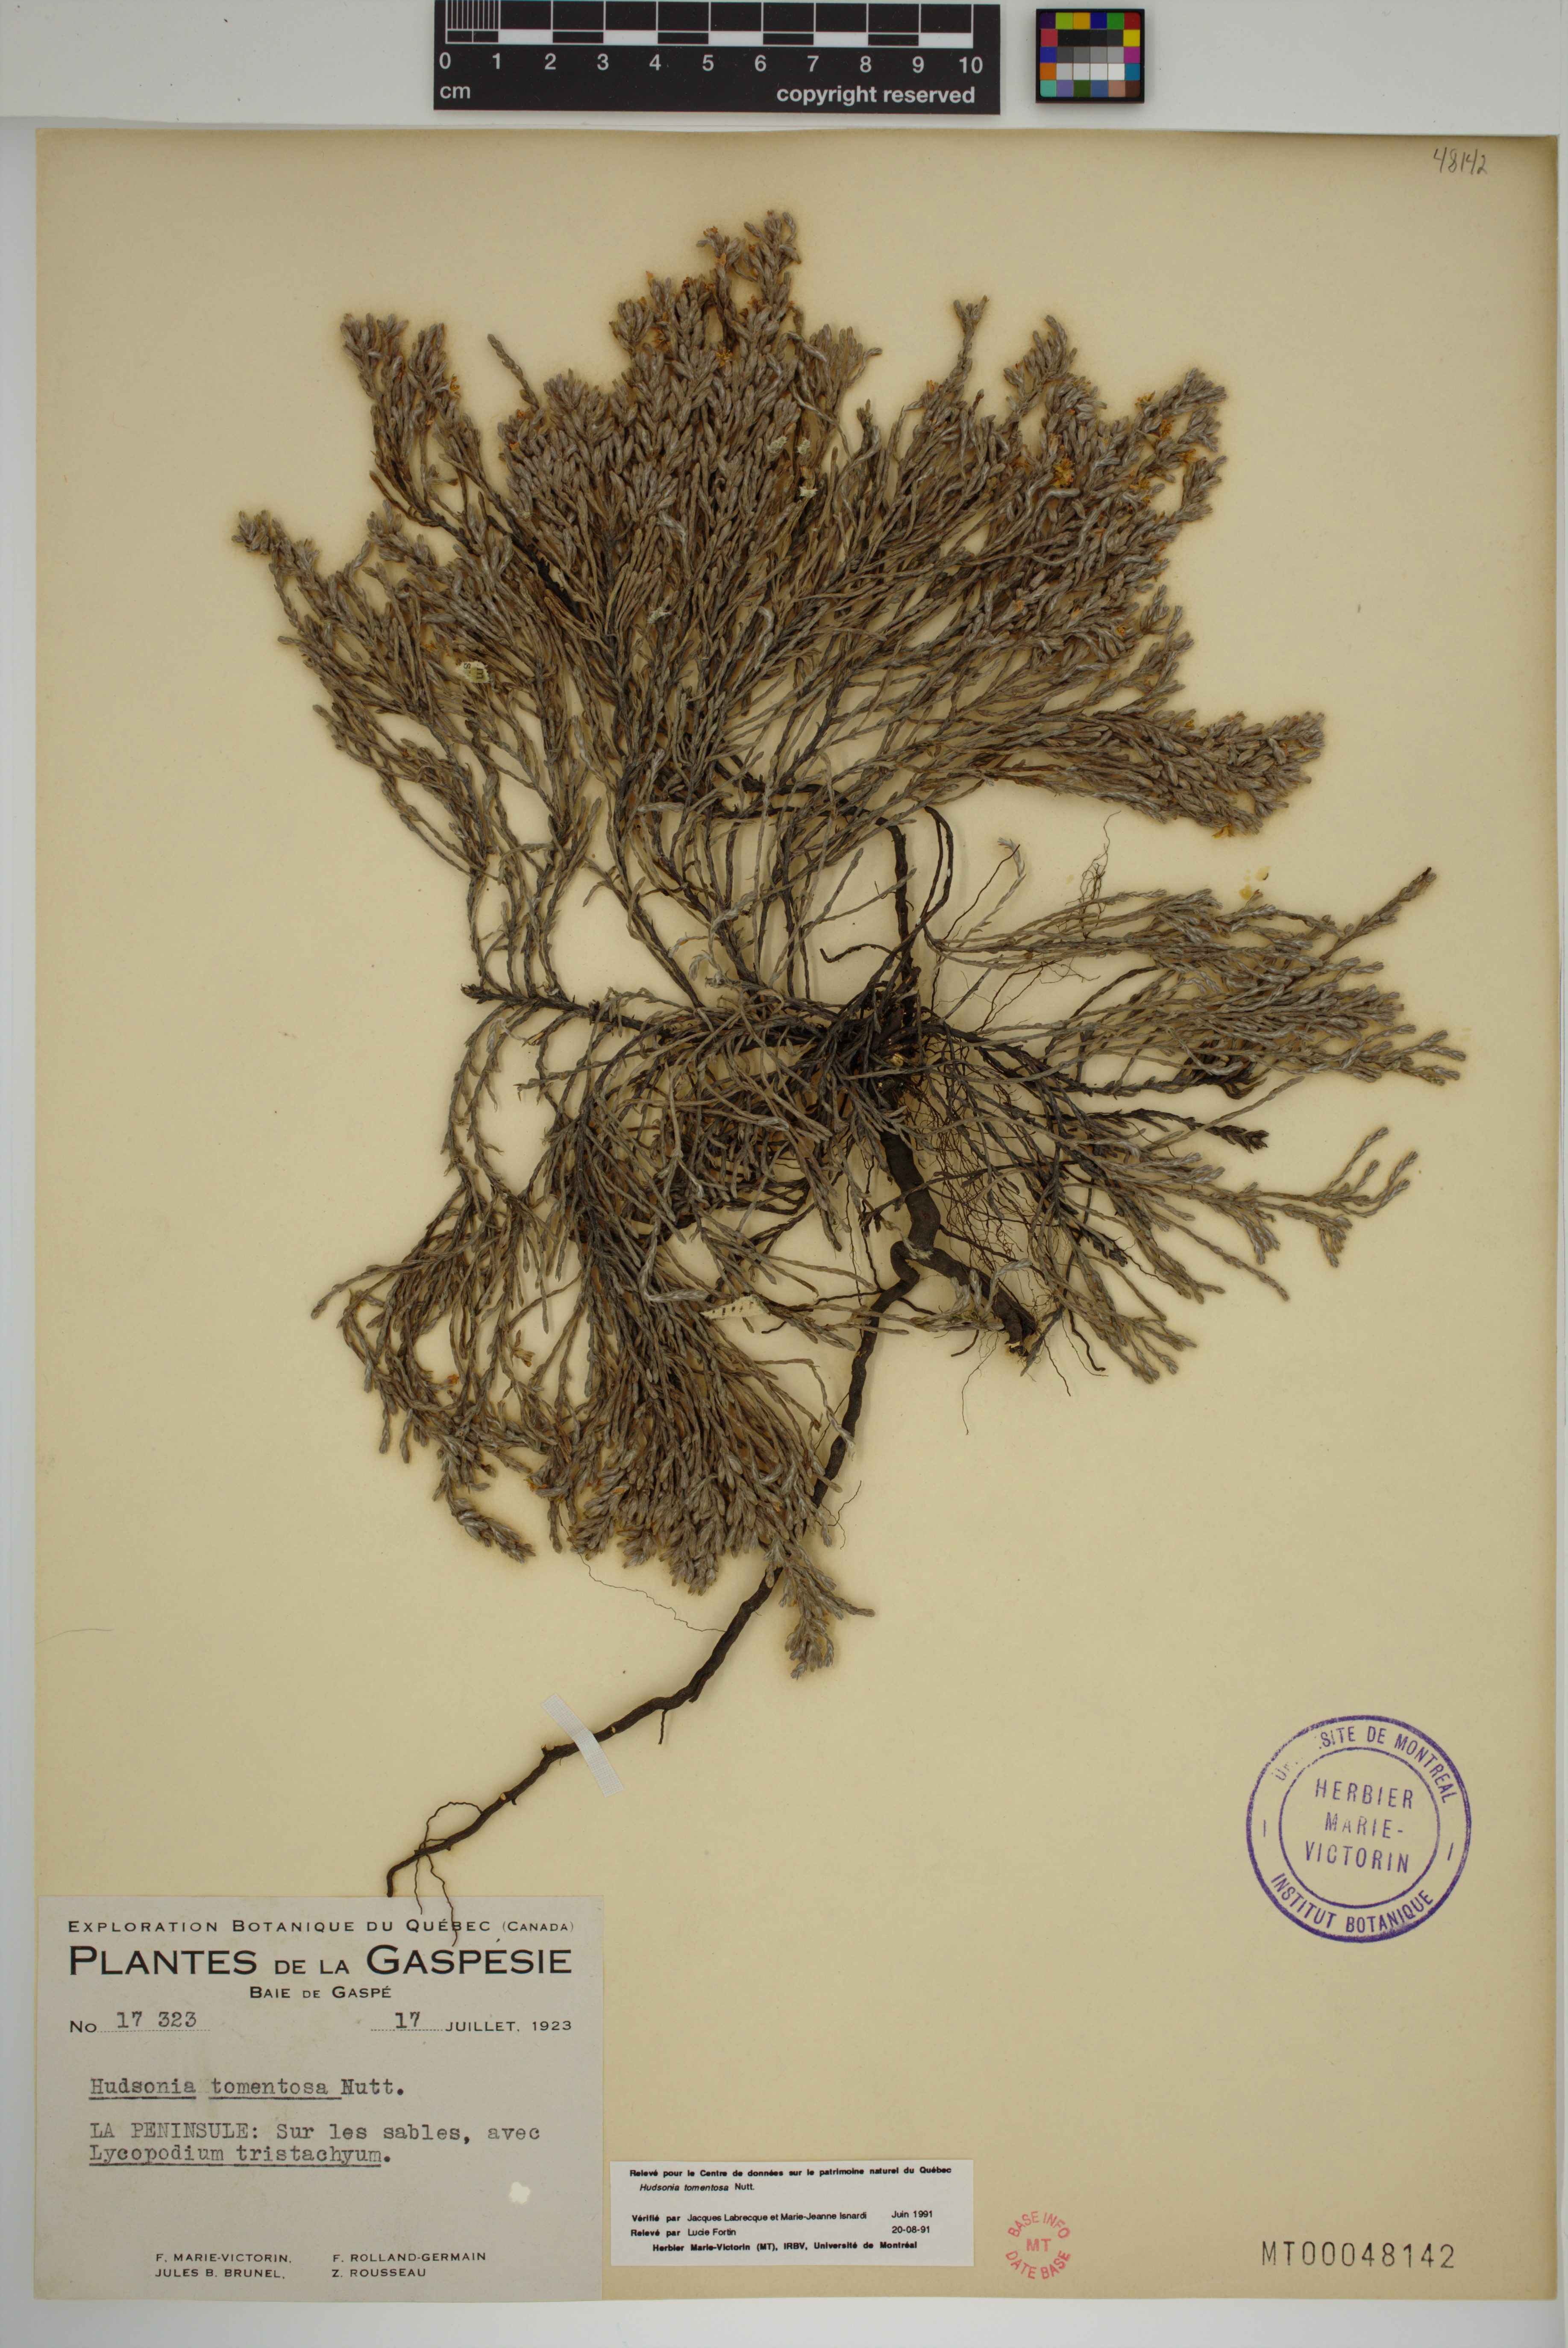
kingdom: Plantae
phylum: Tracheophyta
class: Magnoliopsida
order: Malvales
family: Cistaceae
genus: Hudsonia
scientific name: Hudsonia tomentosa
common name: Beach-heath
